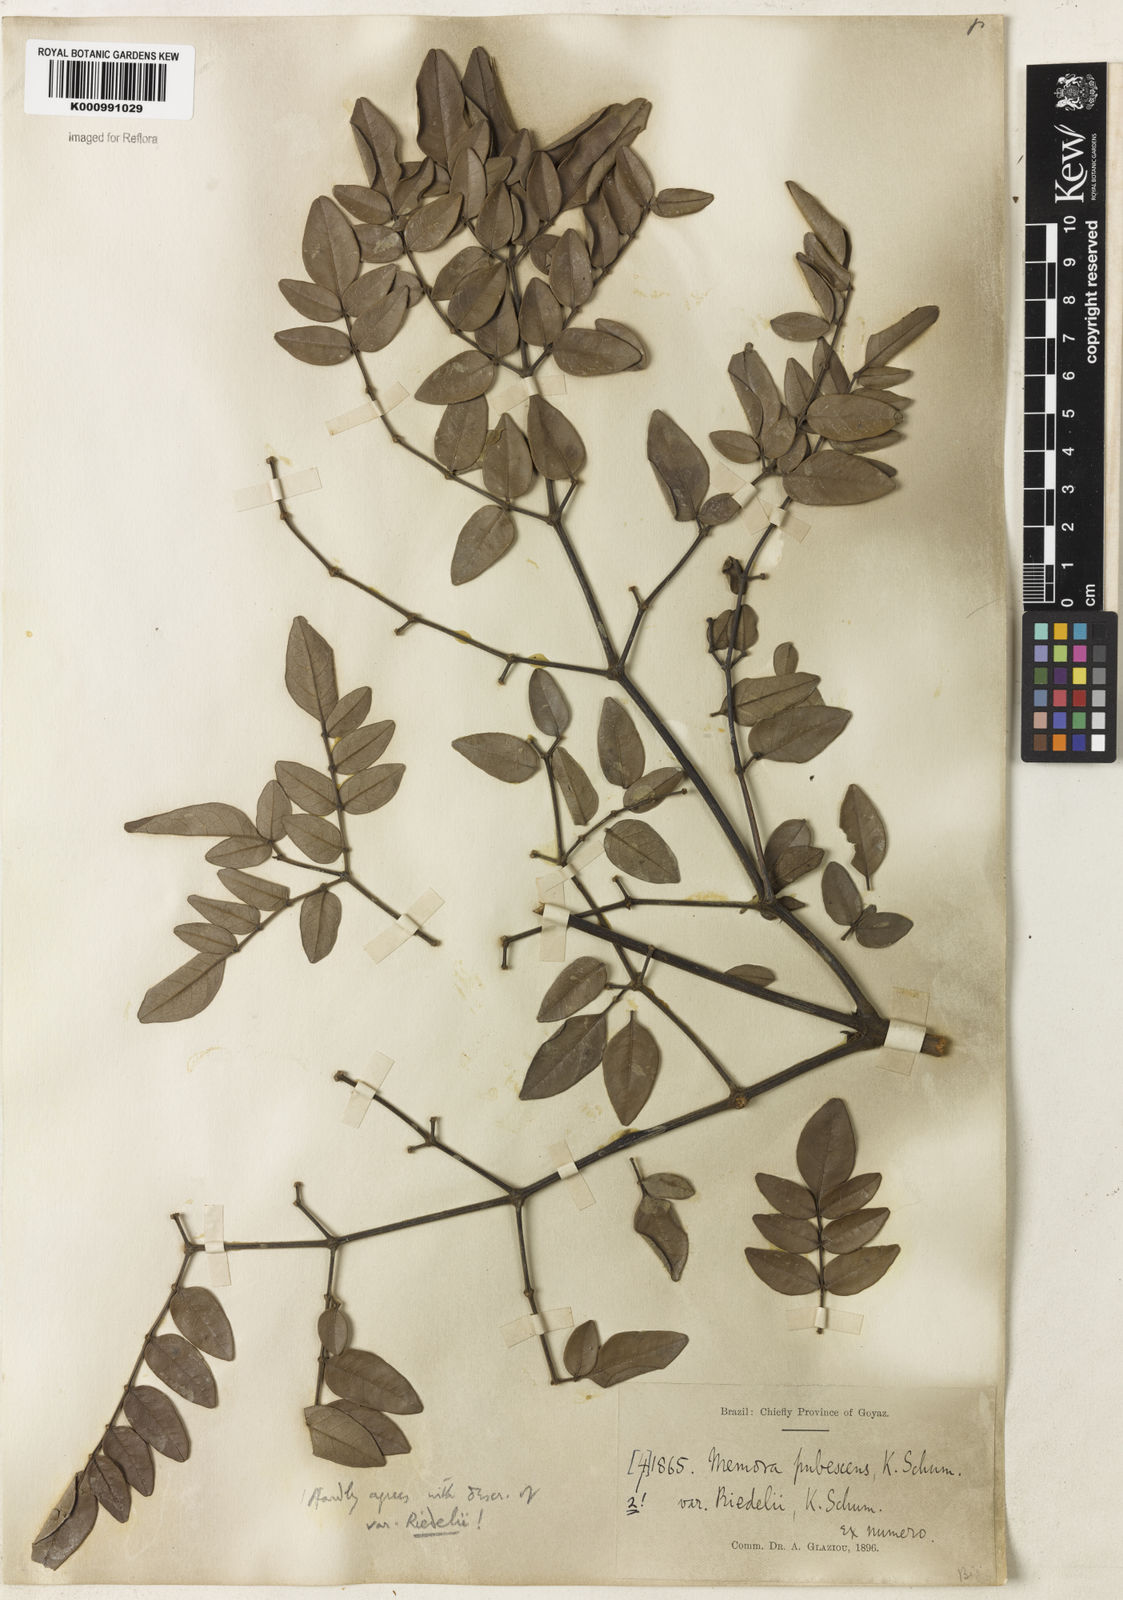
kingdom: Plantae
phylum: Tracheophyta
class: Magnoliopsida
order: Lamiales
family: Bignoniaceae
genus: Adenocalymma
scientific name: Adenocalymma pubescens
